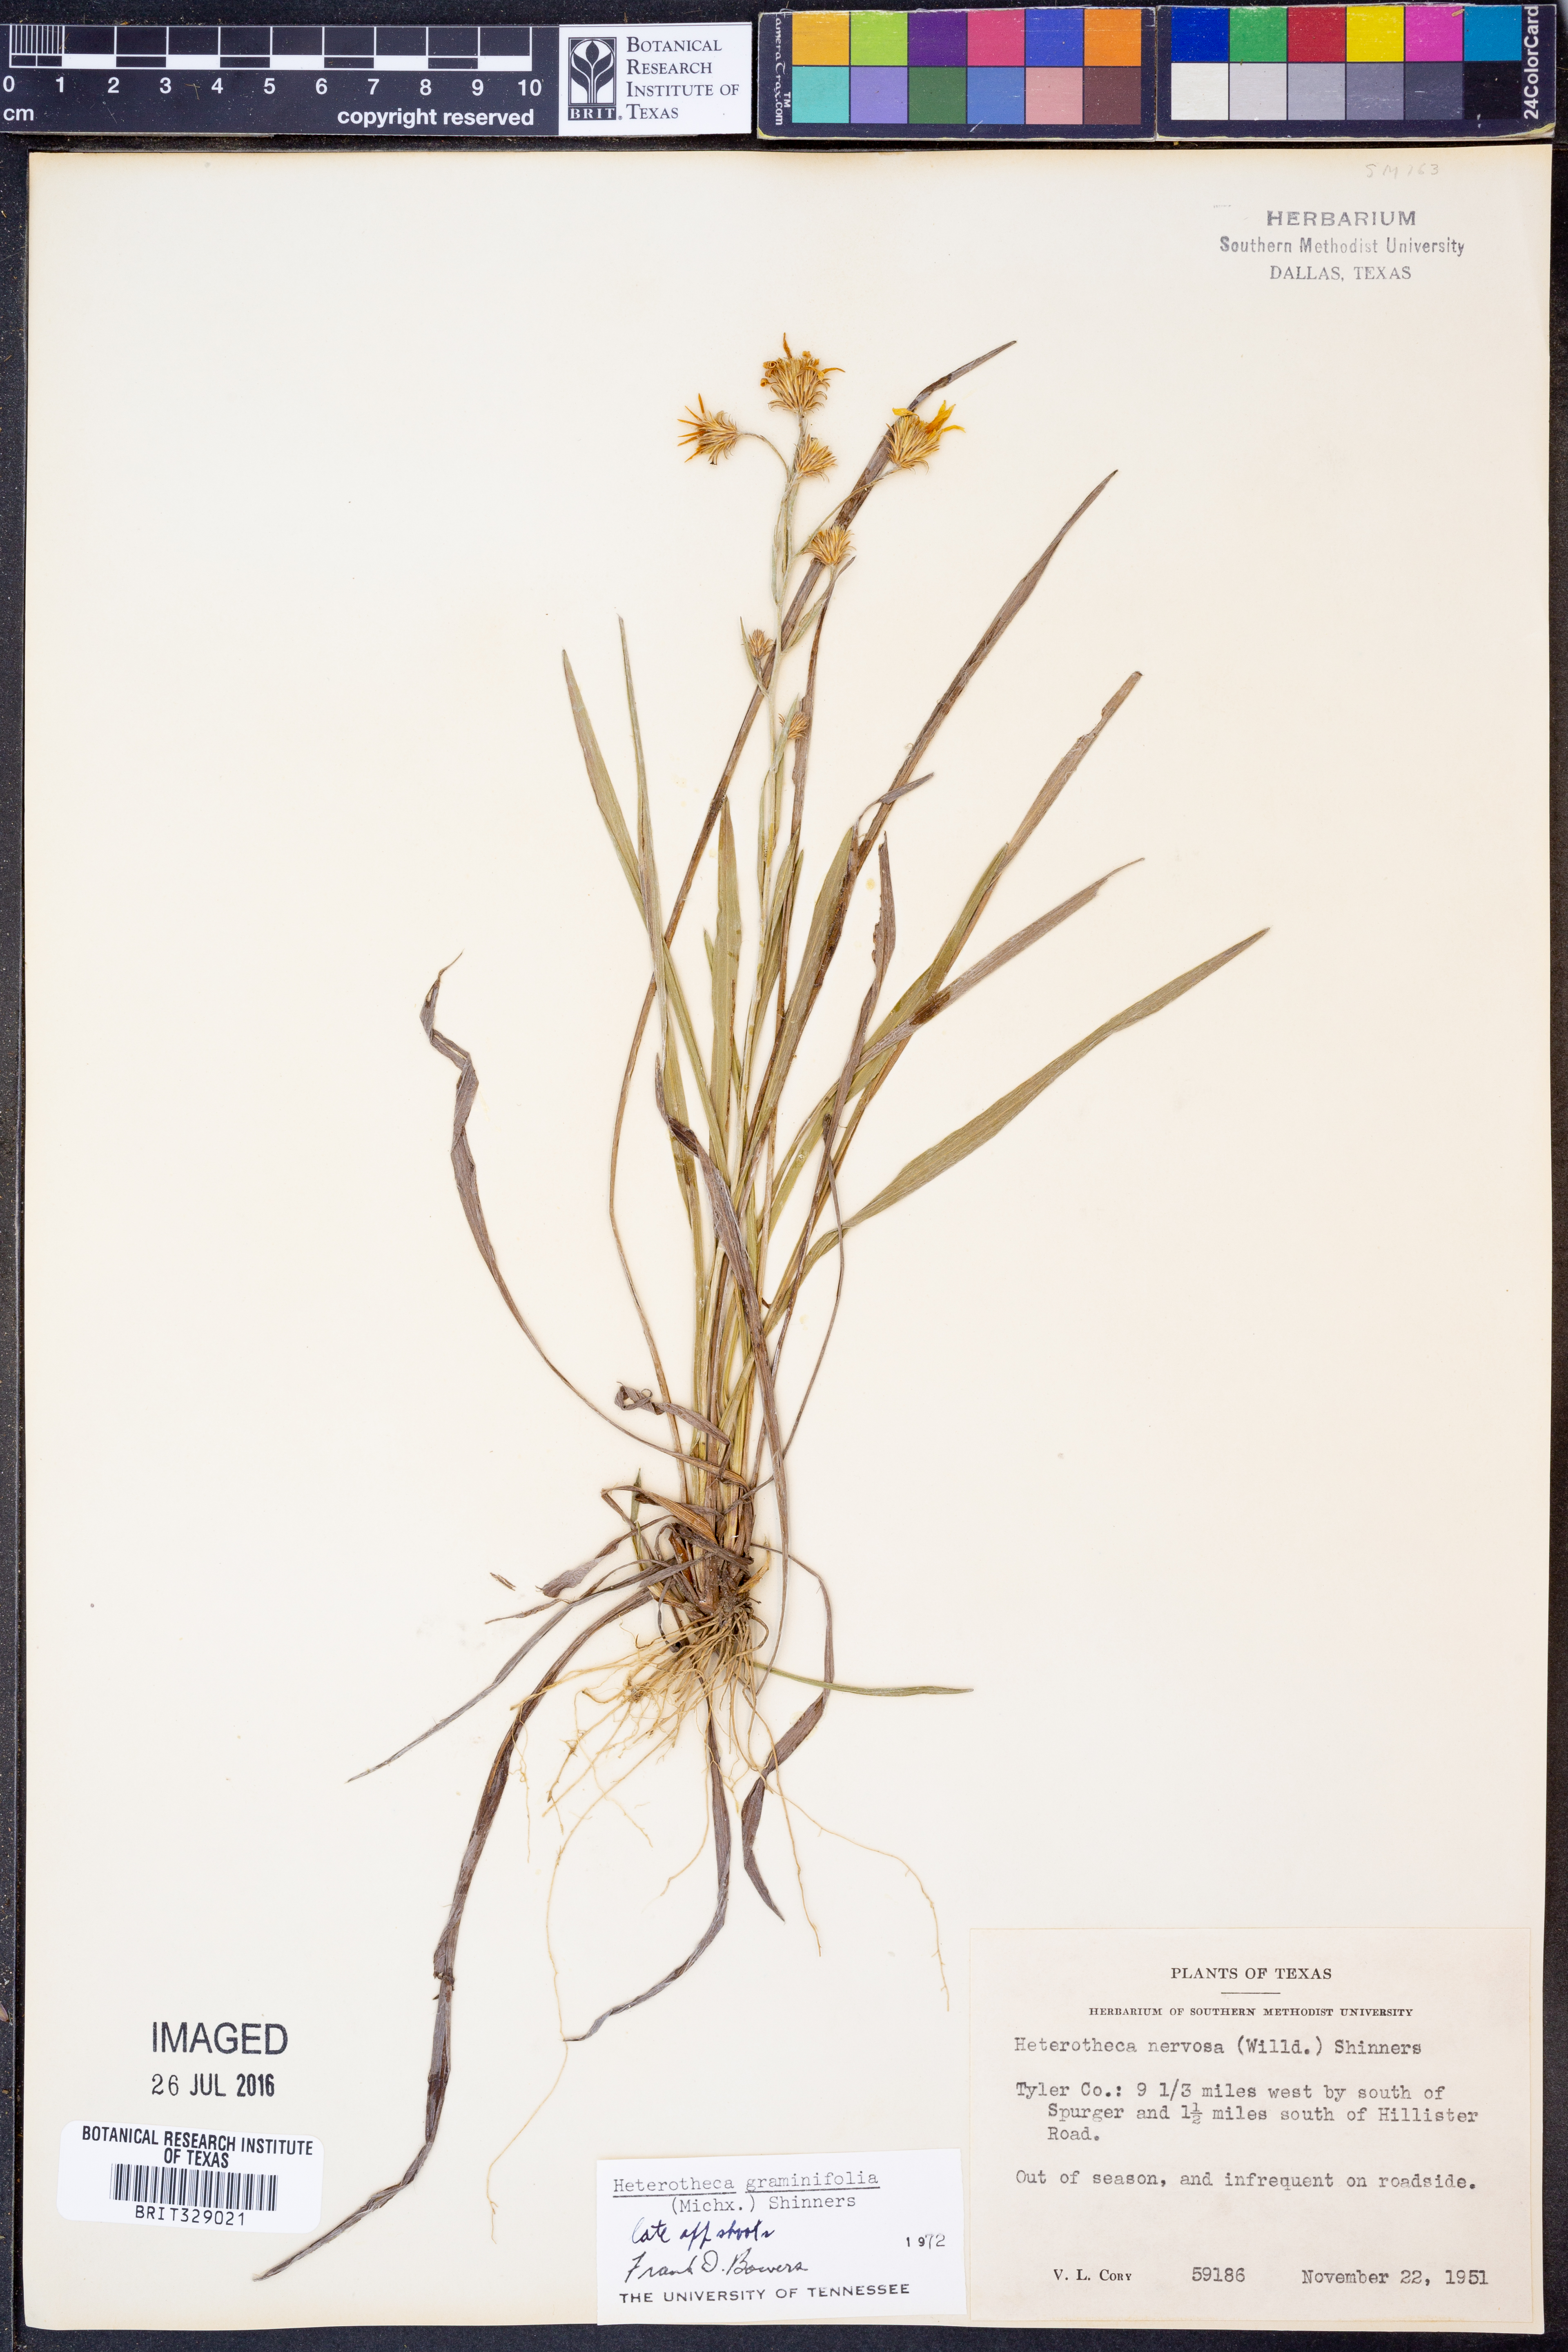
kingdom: Plantae
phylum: Tracheophyta
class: Magnoliopsida
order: Asterales
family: Asteraceae
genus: Pityopsis
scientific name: Pityopsis graminifolia
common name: Grass-leaf golden-aster
